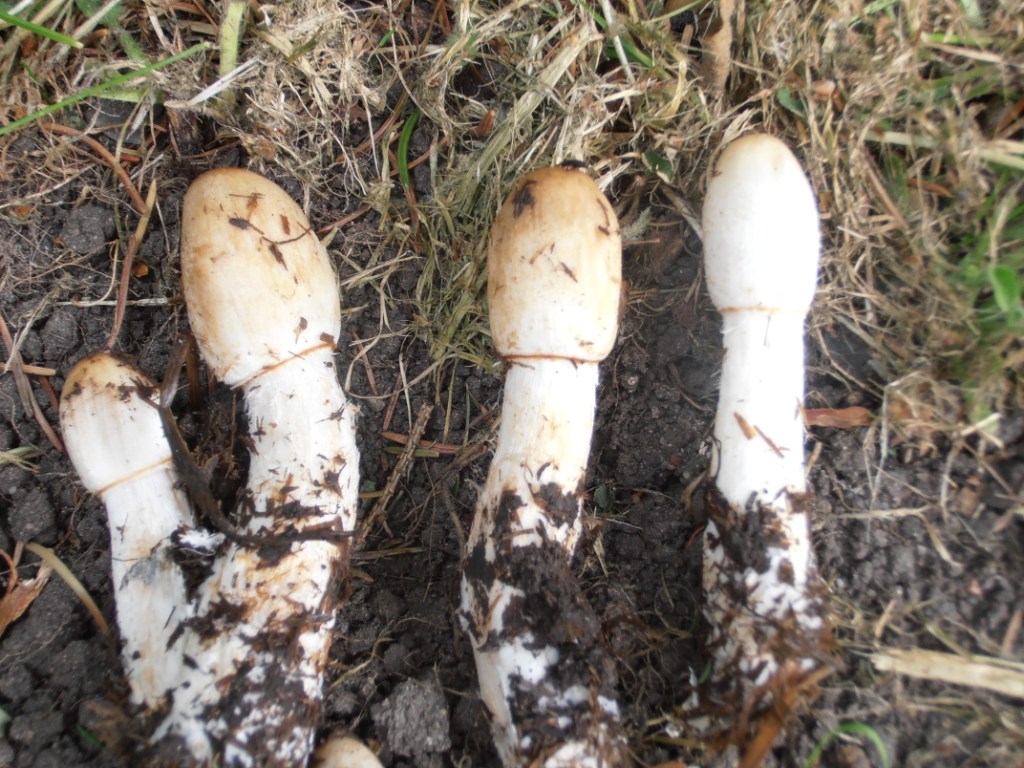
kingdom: Fungi
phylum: Basidiomycota
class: Agaricomycetes
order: Agaricales
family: Agaricaceae
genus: Coprinus
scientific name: Coprinus sterquilinus
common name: møg-parykhat
